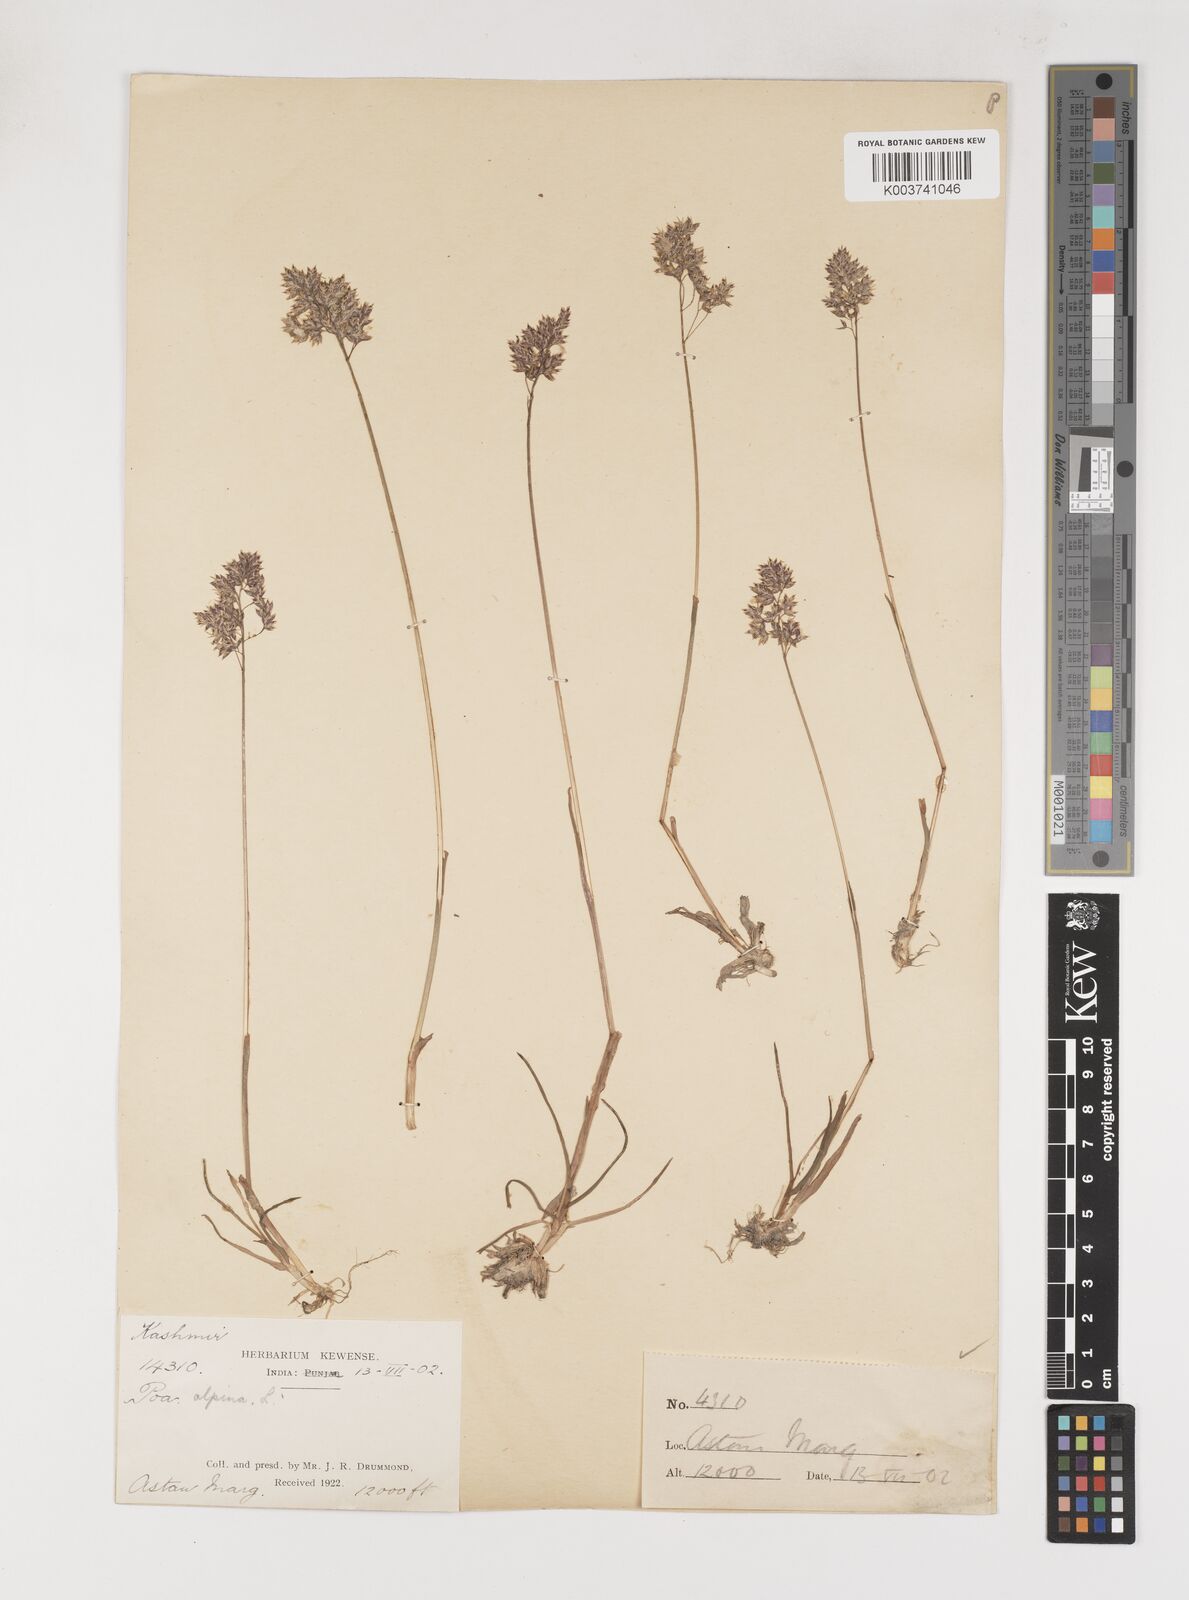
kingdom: Plantae
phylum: Tracheophyta
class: Liliopsida
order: Poales
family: Poaceae
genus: Poa
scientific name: Poa alpina
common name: Alpine bluegrass
